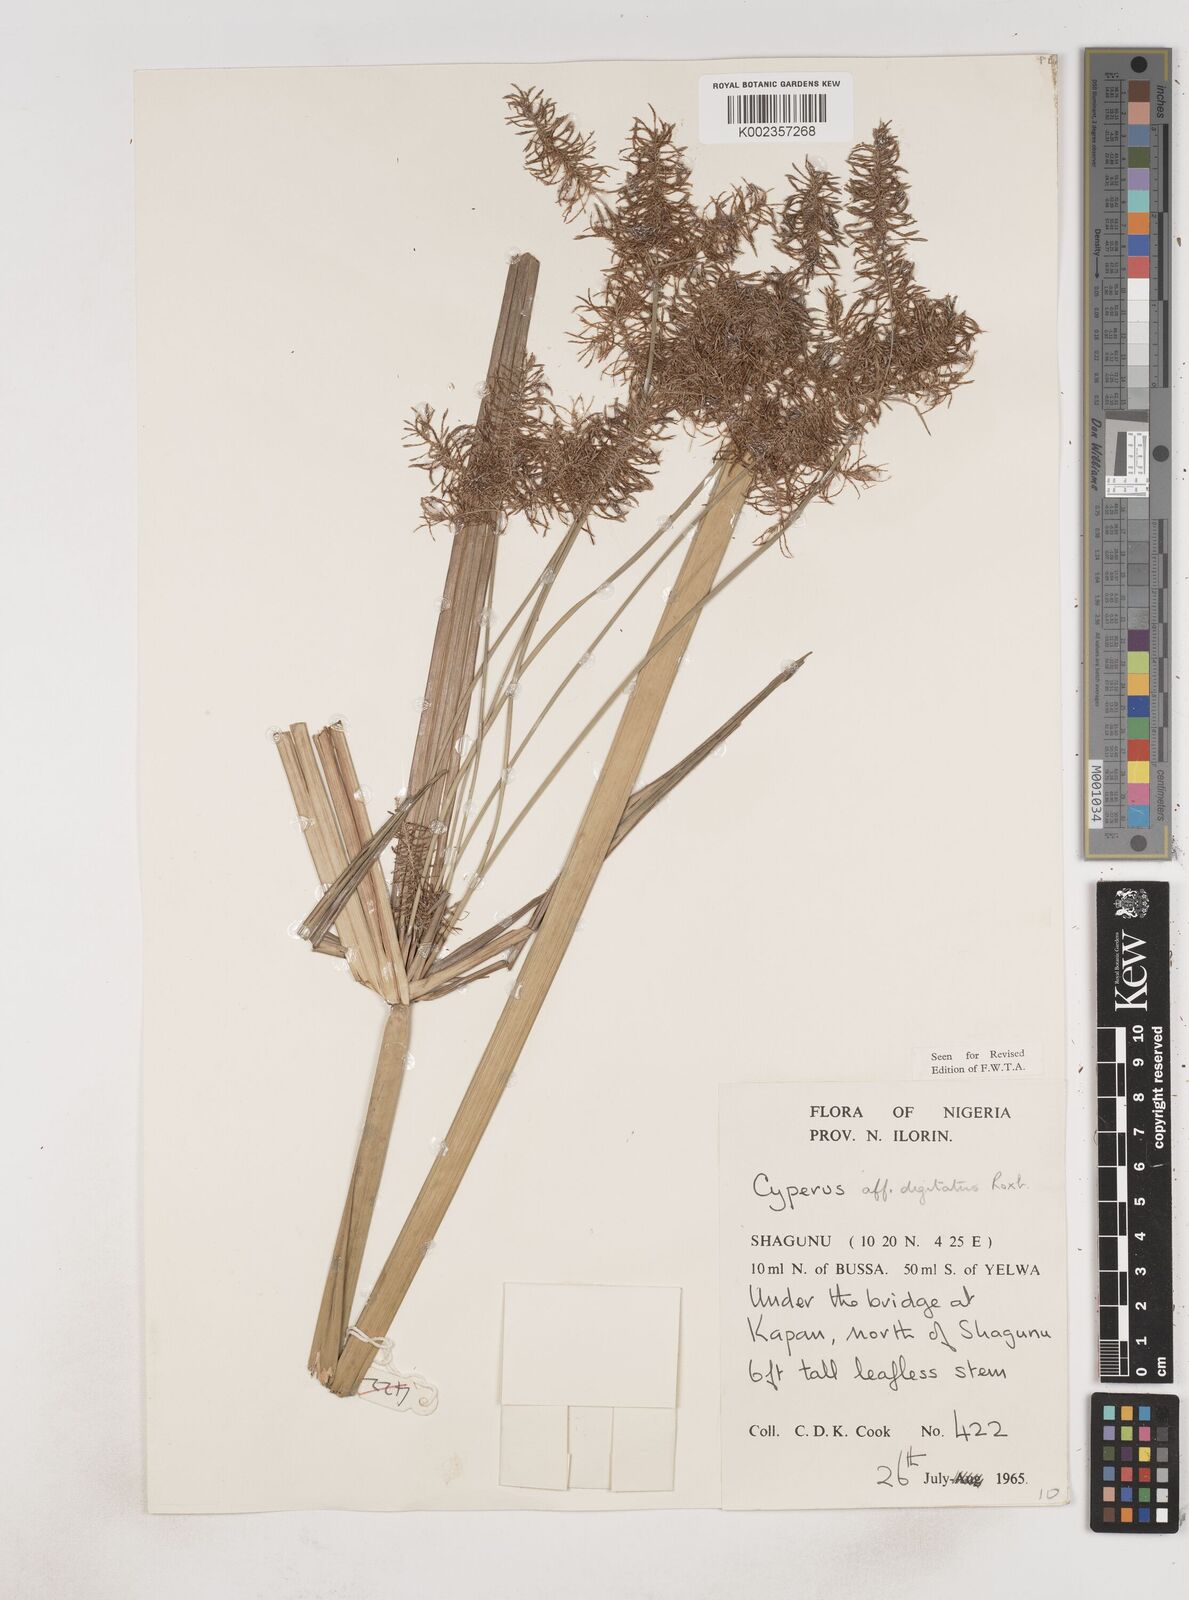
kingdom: Plantae
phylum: Tracheophyta
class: Liliopsida
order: Poales
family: Cyperaceae
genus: Cyperus
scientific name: Cyperus
